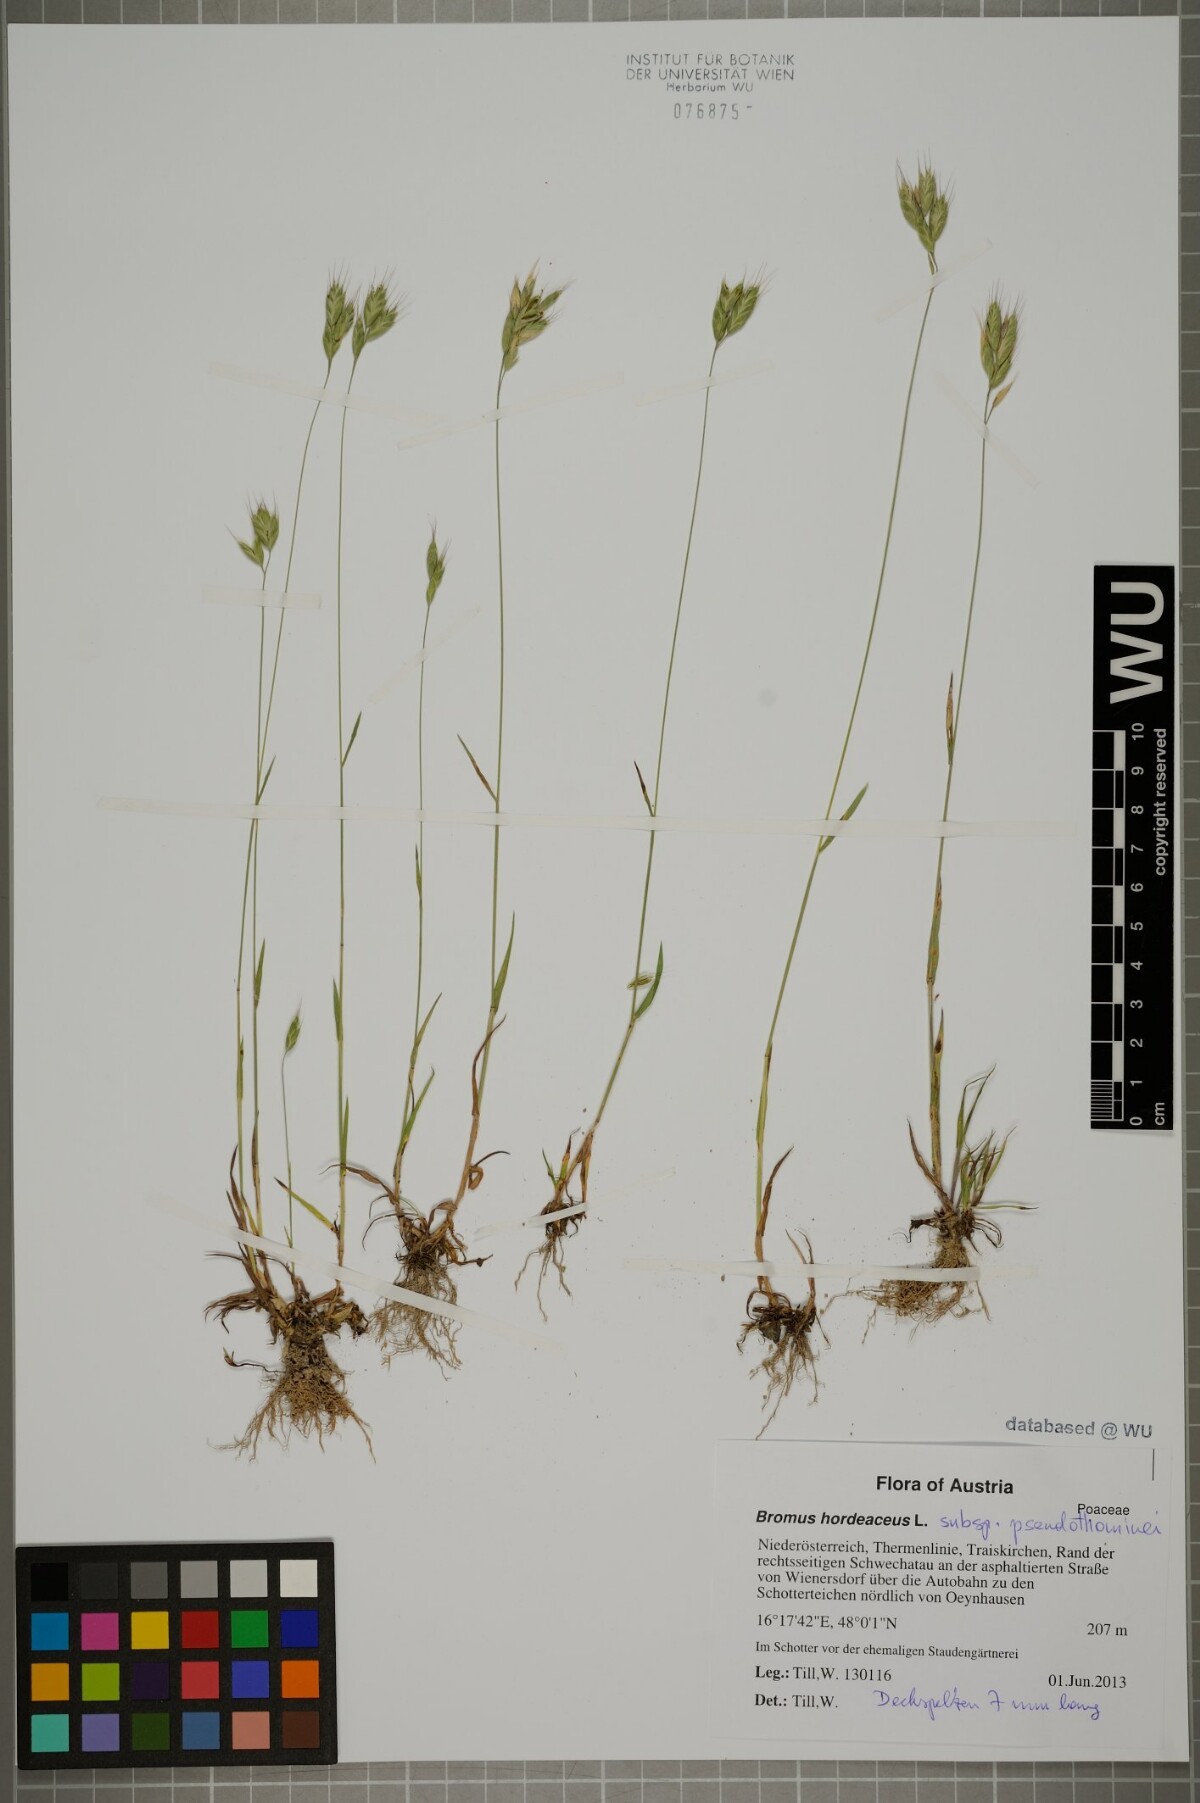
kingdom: Plantae
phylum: Tracheophyta
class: Liliopsida
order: Poales
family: Poaceae
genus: Bromus
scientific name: Bromus ferronii
